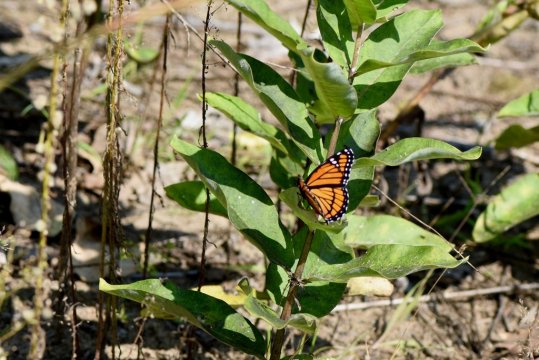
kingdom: Animalia
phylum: Arthropoda
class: Insecta
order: Lepidoptera
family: Nymphalidae
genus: Limenitis
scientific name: Limenitis archippus
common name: Viceroy
